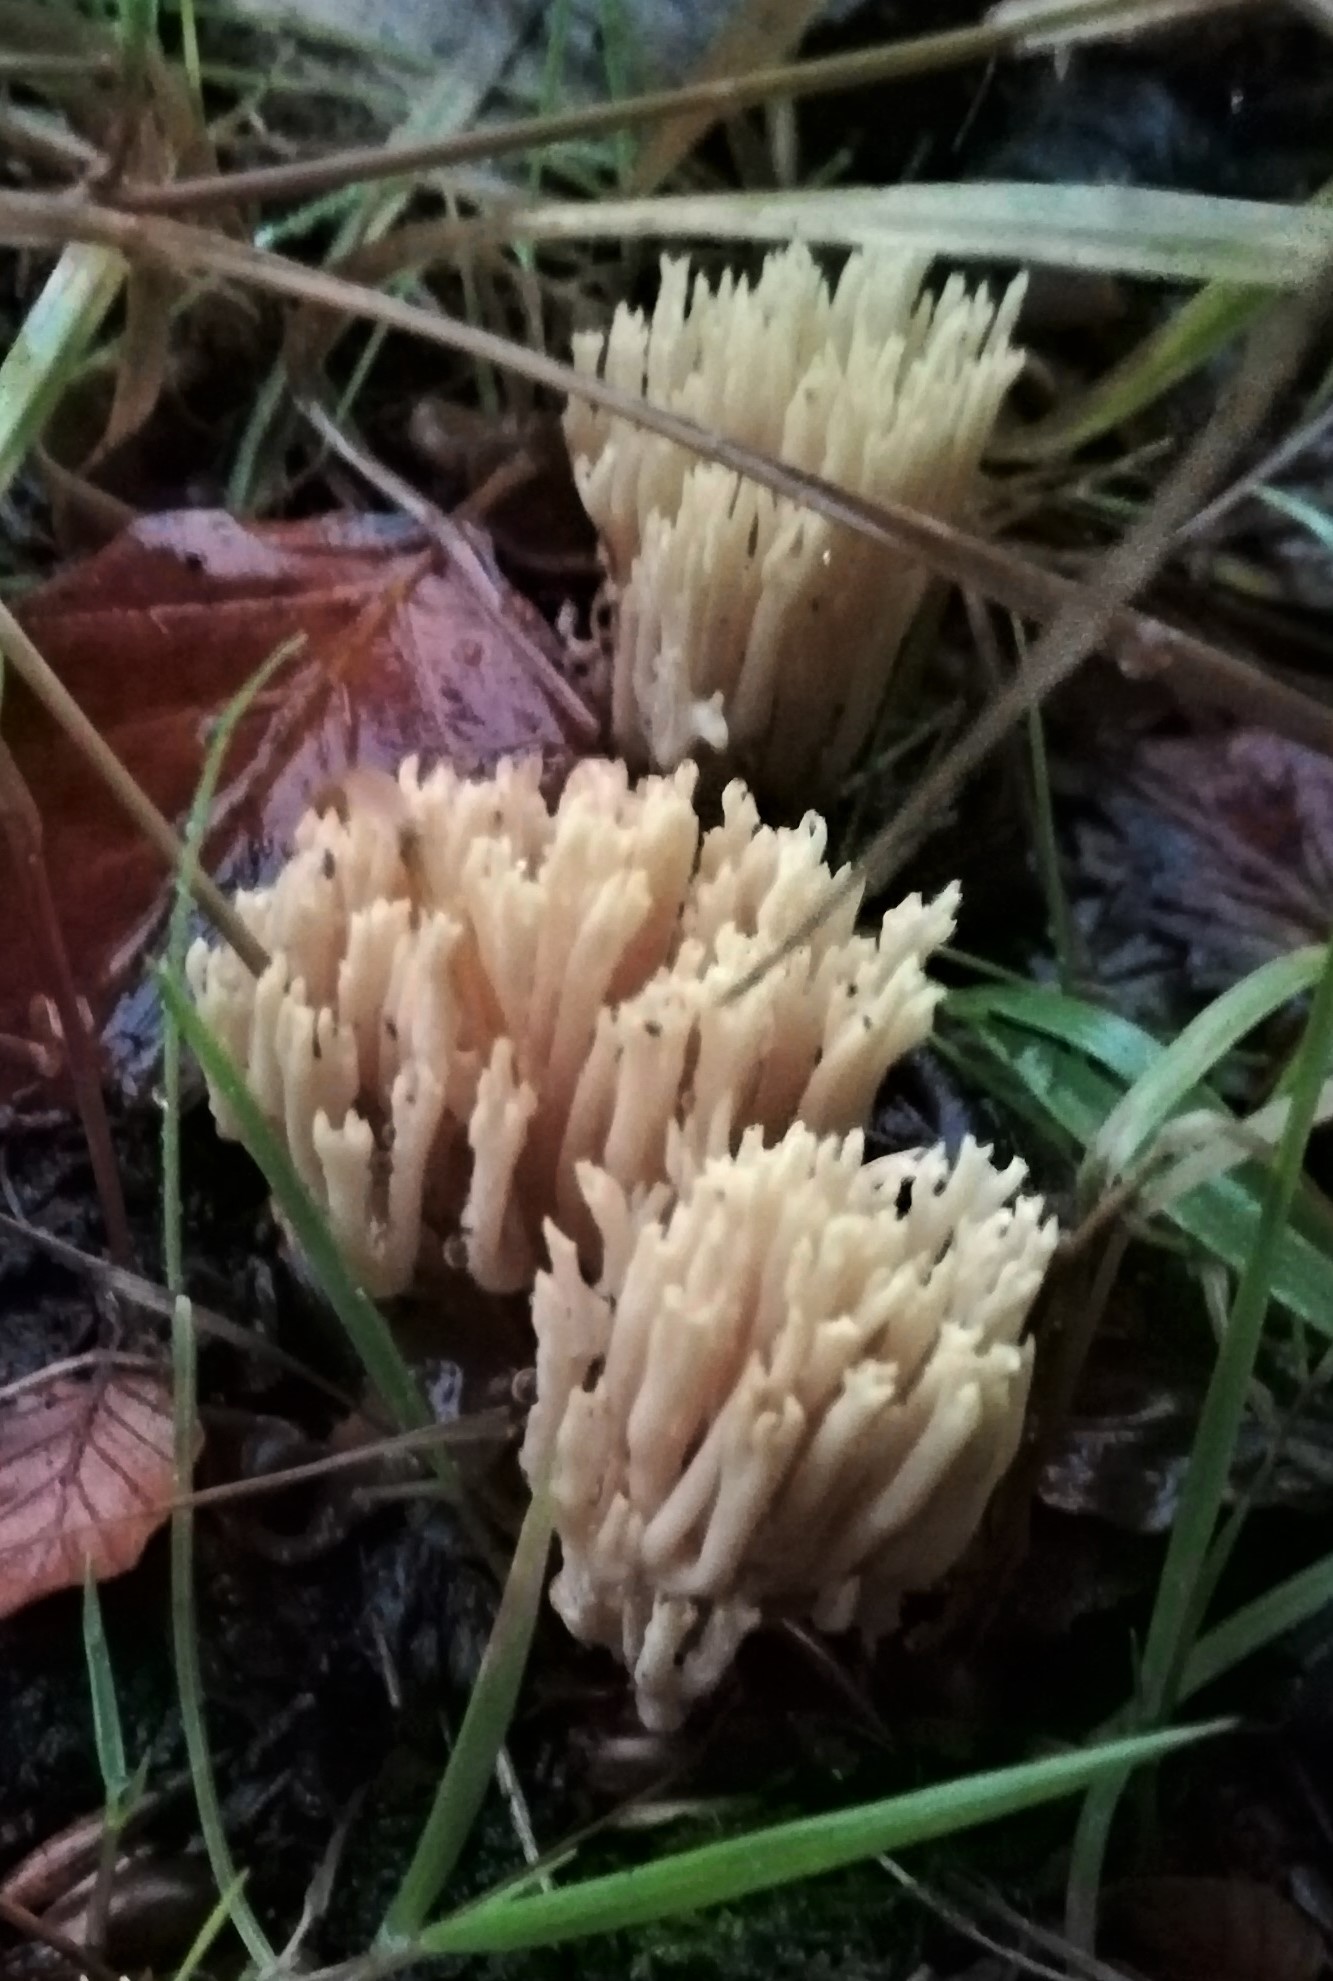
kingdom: Fungi
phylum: Basidiomycota
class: Agaricomycetes
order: Gomphales
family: Gomphaceae
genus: Ramaria
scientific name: Ramaria stricta
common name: rank koralsvamp
